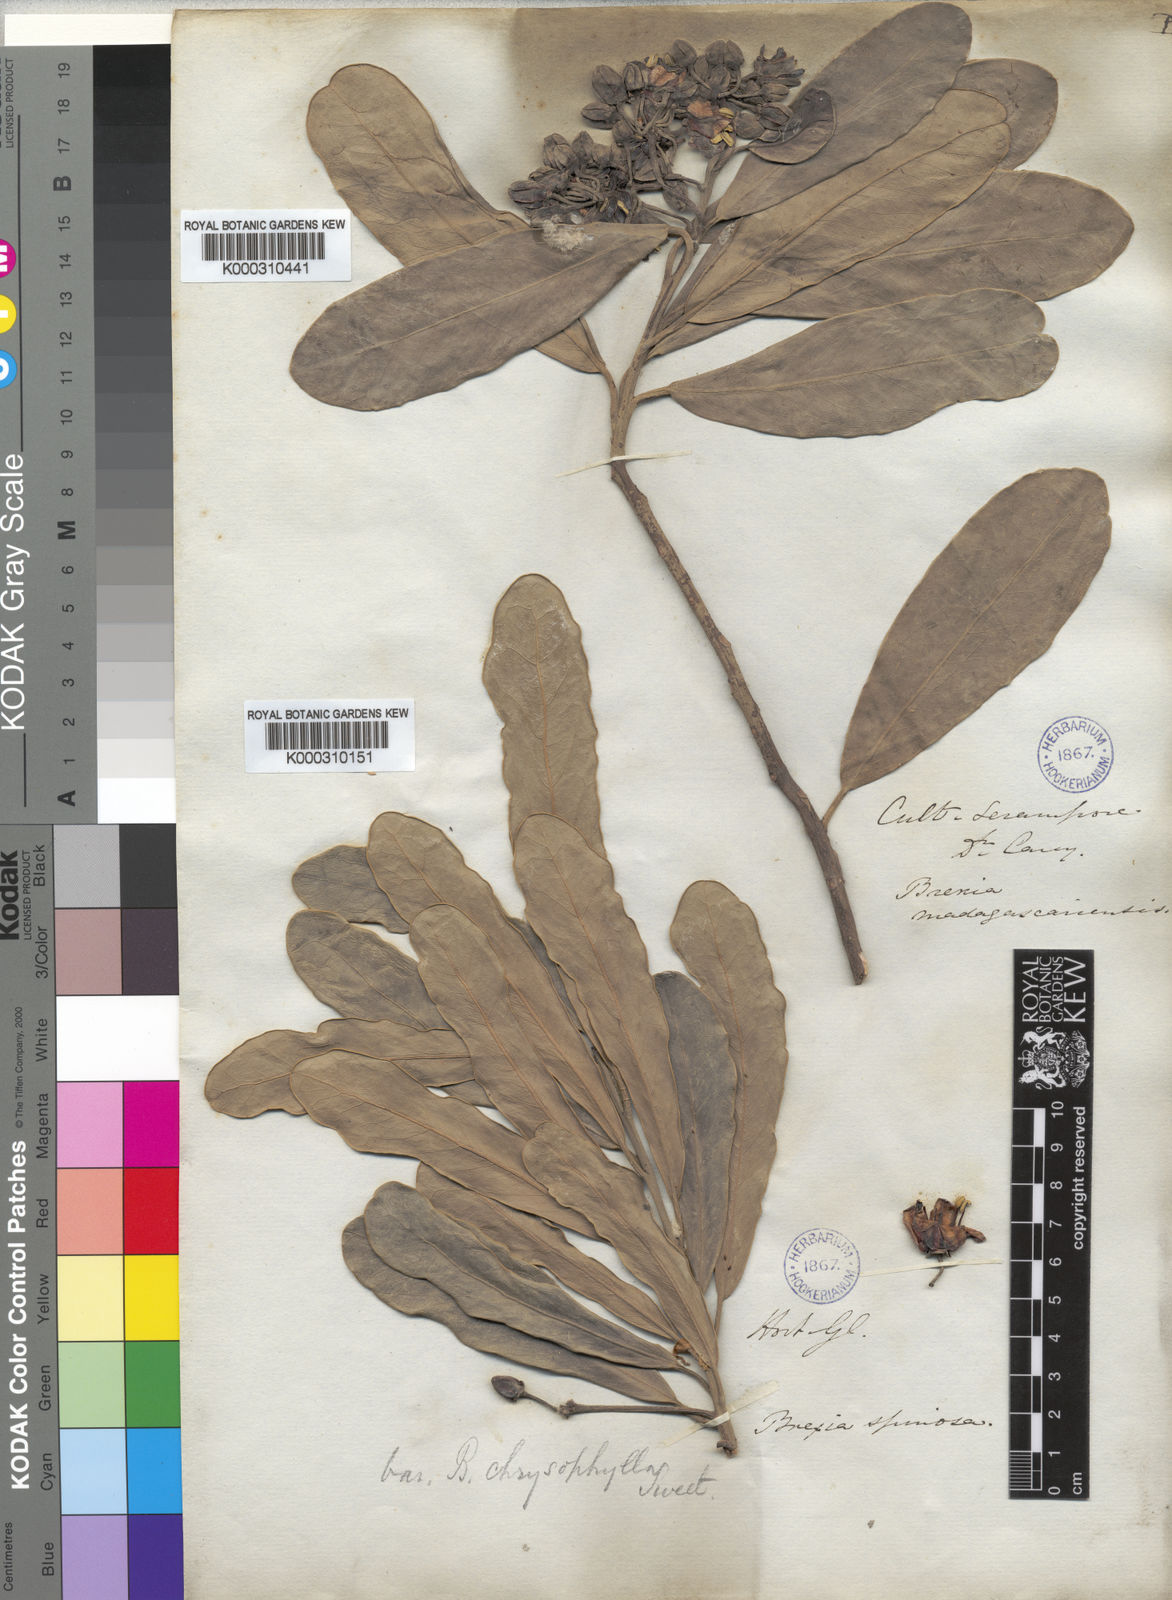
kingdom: Plantae
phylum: Tracheophyta
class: Magnoliopsida
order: Celastrales
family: Celastraceae
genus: Brexia
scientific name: Brexia madagascariensis
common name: Brexia
